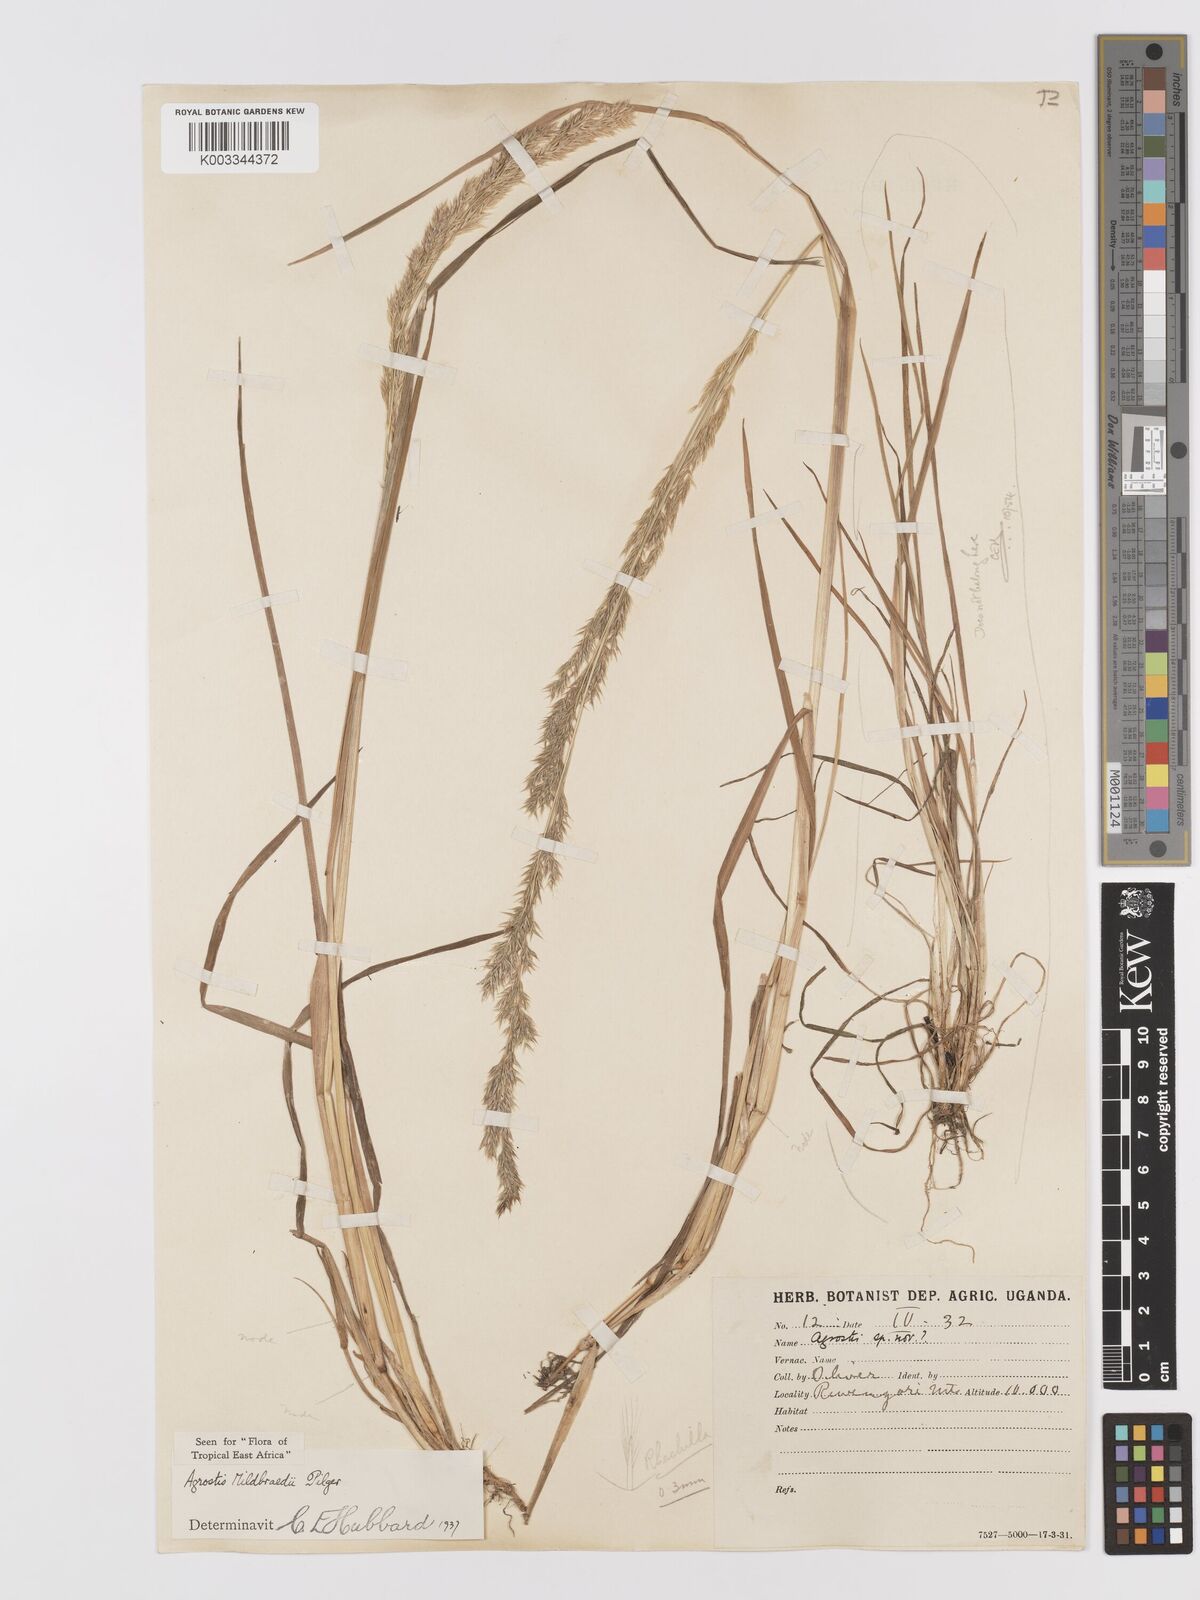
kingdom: Plantae
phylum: Tracheophyta
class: Liliopsida
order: Poales
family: Poaceae
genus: Agrostis
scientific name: Agrostis quinqueseta
